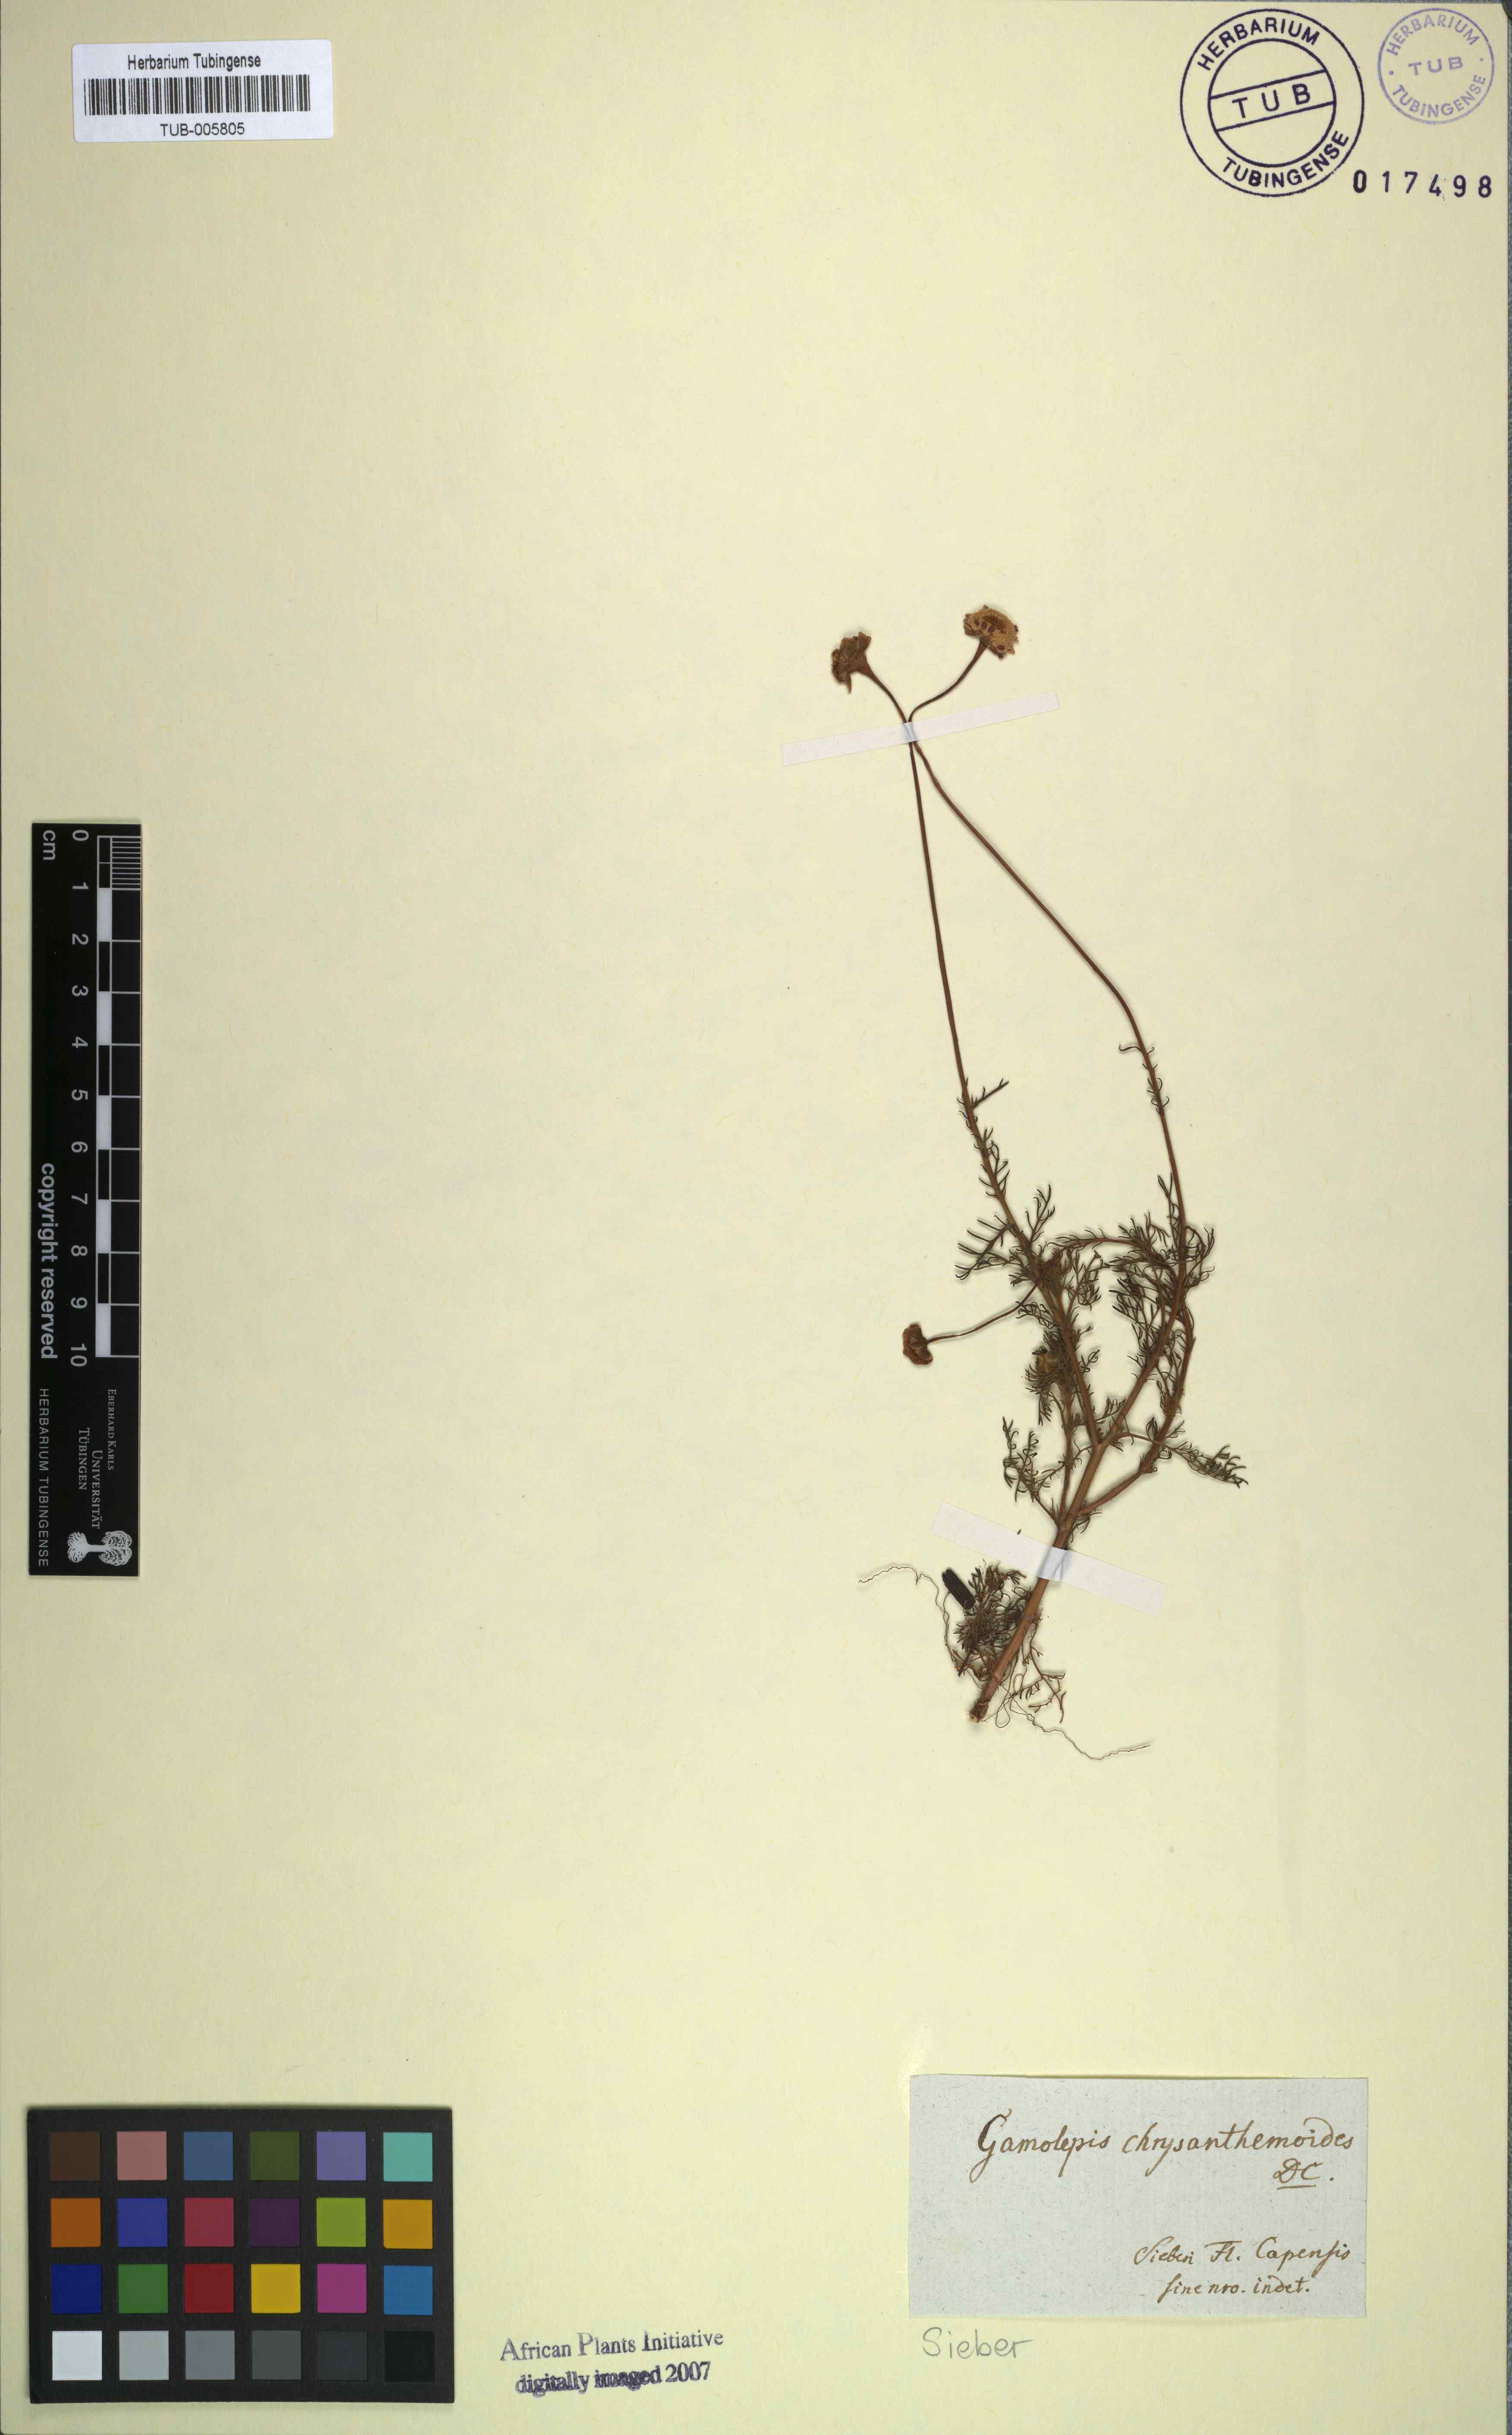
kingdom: Plantae
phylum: Tracheophyta
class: Magnoliopsida
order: Asterales
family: Asteraceae
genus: Euryops
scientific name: Euryops chrysanthemoides
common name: Bull's eye
